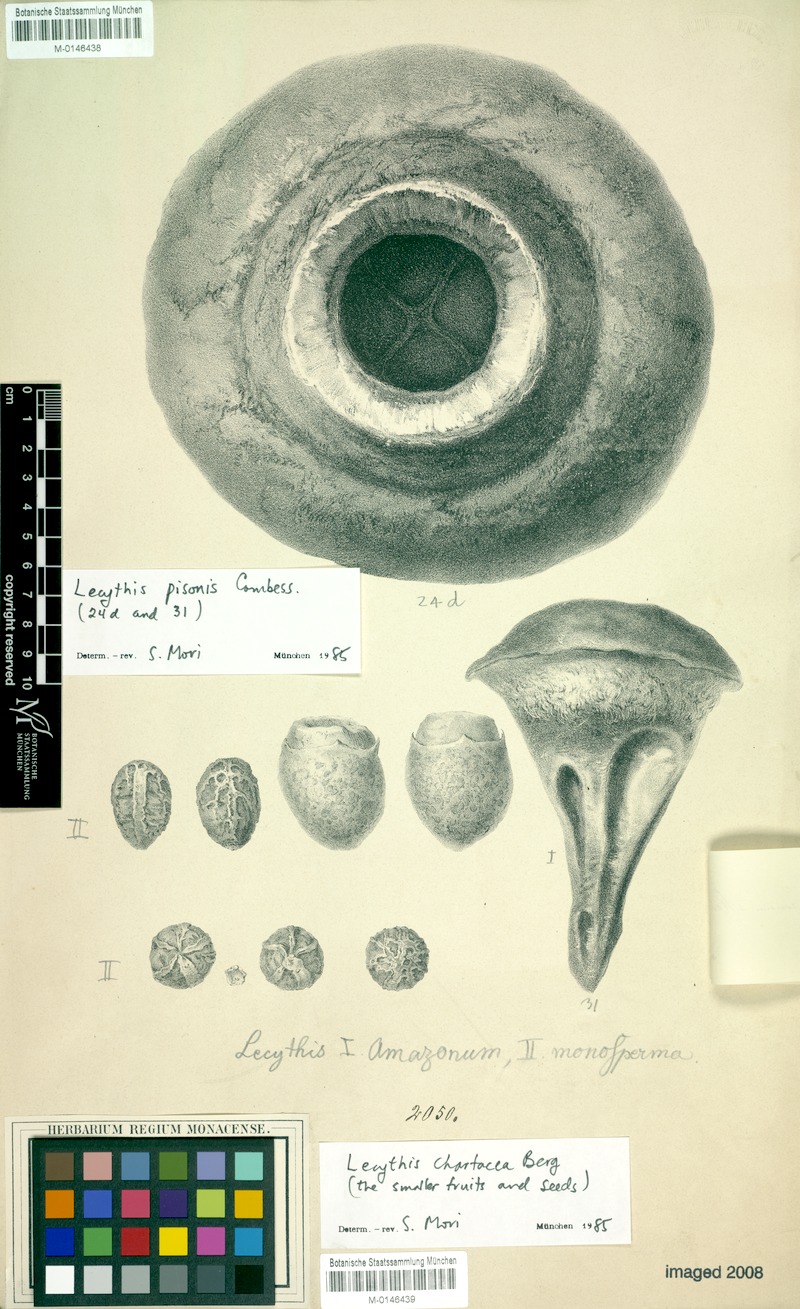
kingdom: Plantae
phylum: Tracheophyta
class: Magnoliopsida
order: Ericales
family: Lecythidaceae
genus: Lecythis
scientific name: Lecythis pisonis
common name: Paradise-nut
